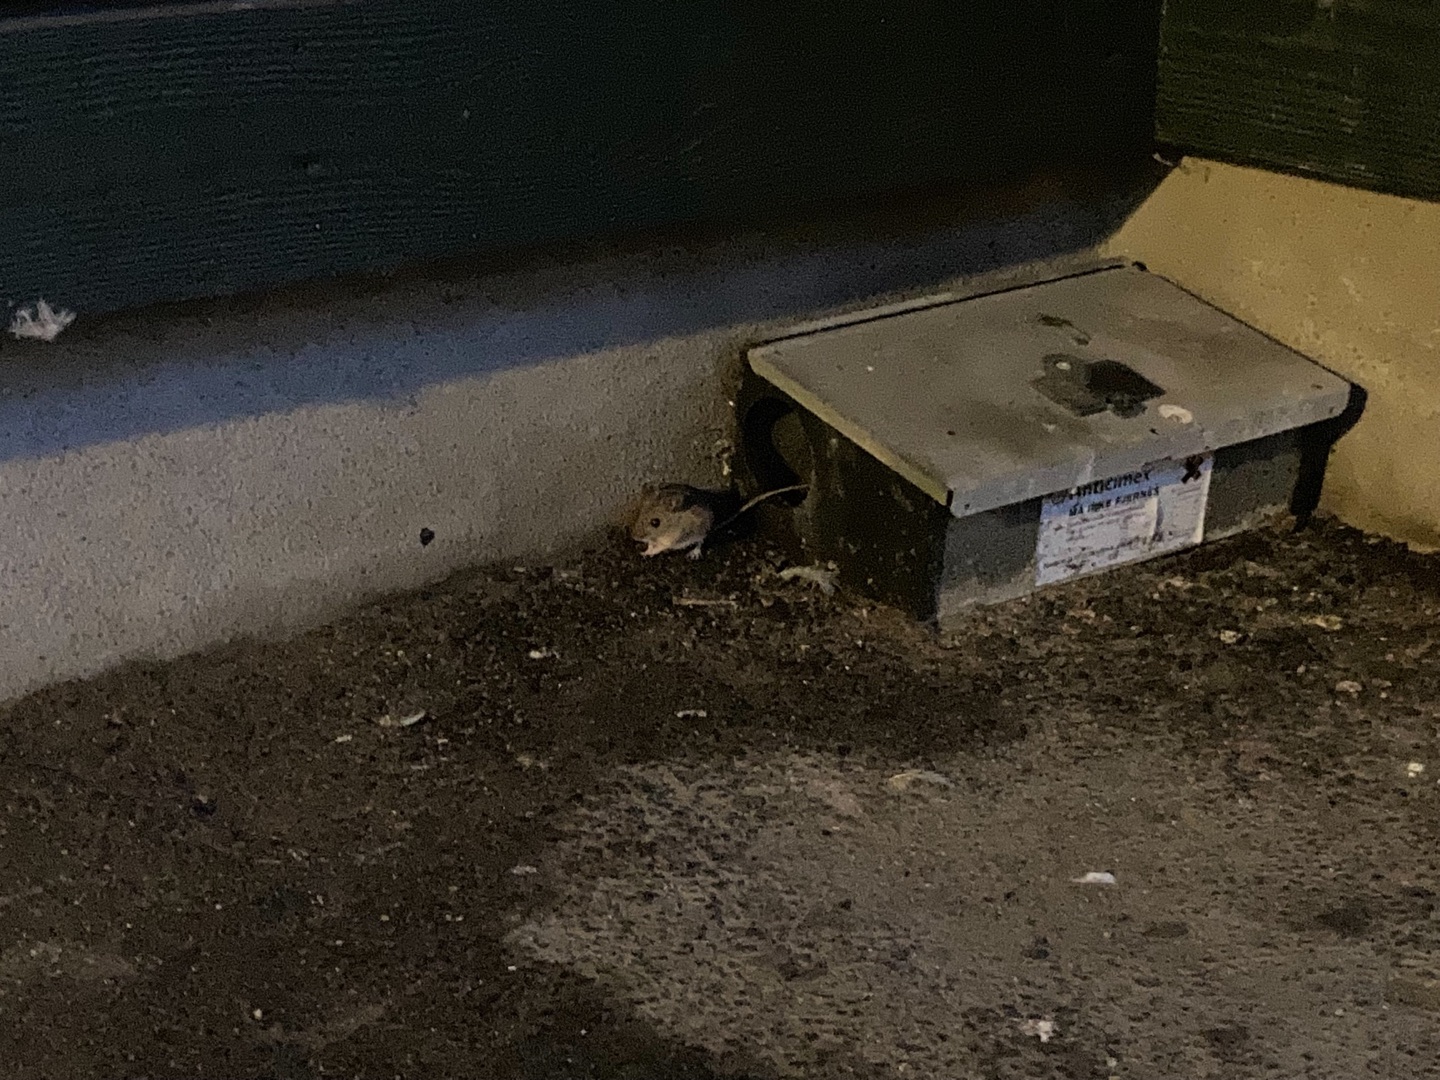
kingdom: Animalia
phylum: Chordata
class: Mammalia
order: Rodentia
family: Muridae
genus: Apodemus
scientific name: Apodemus flavicollis
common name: Halsbåndmus
